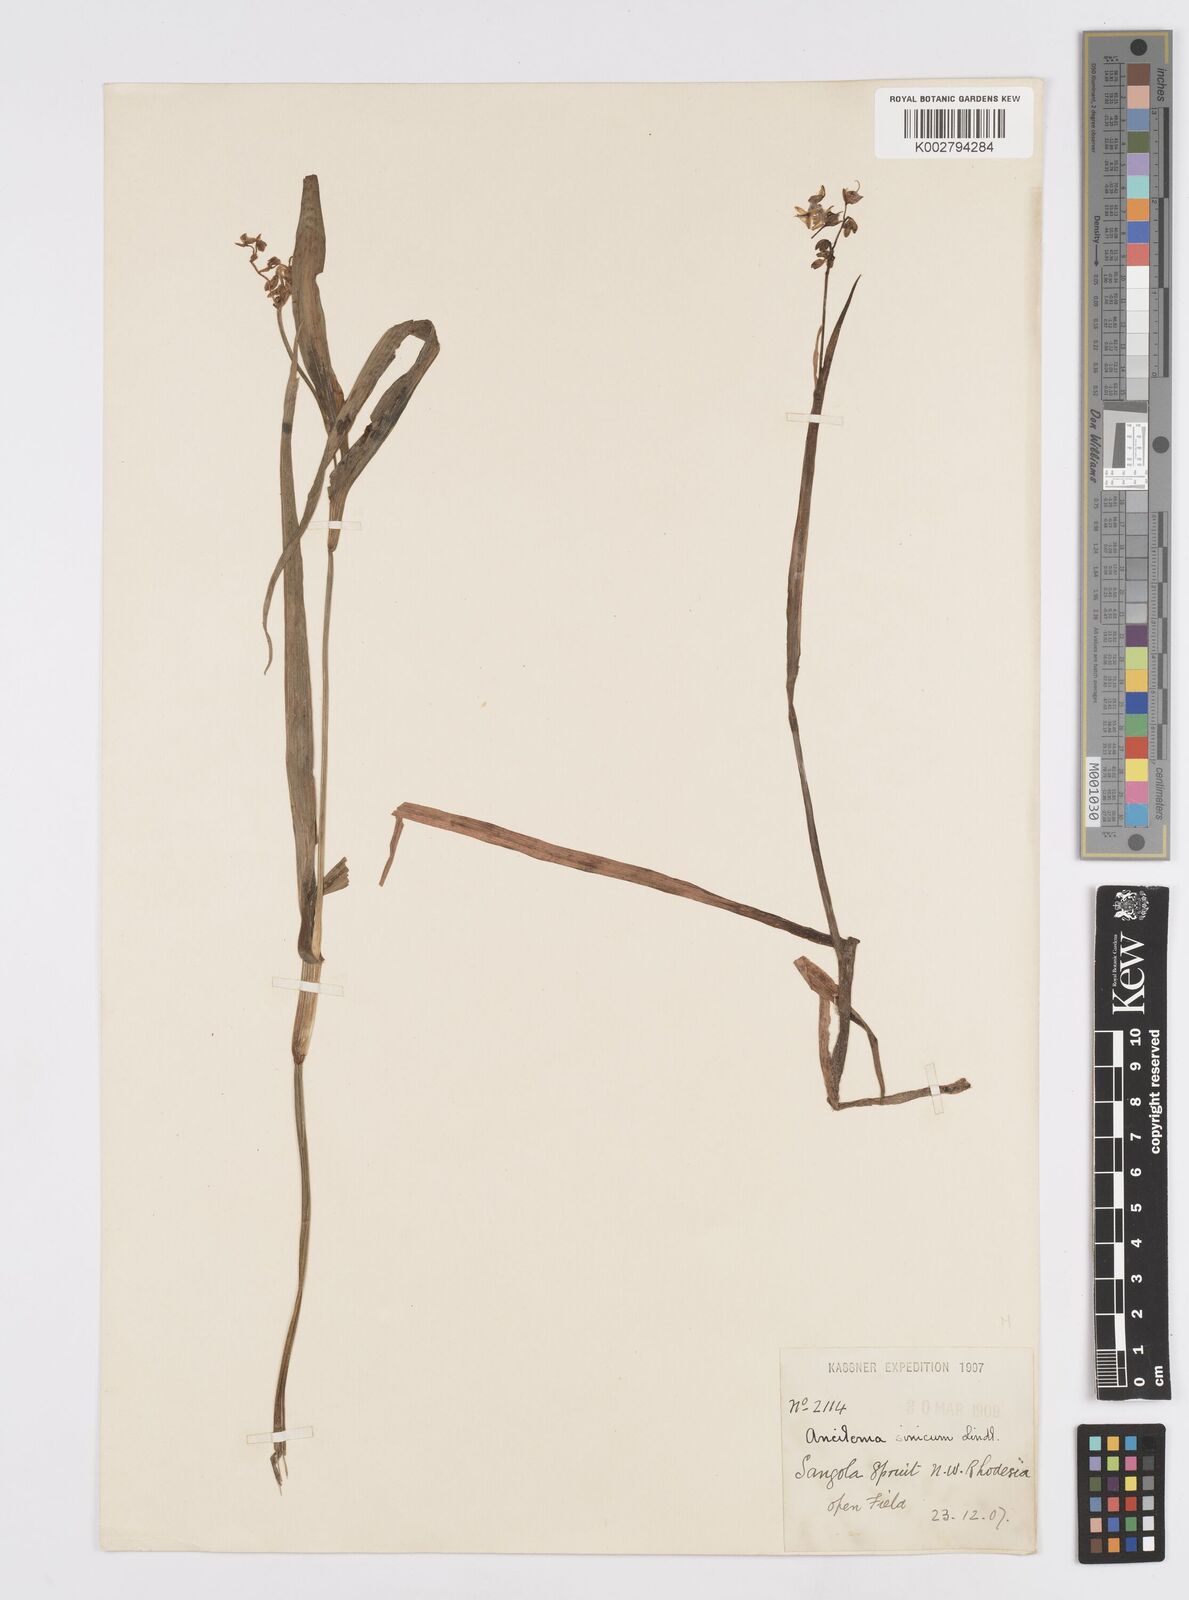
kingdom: Plantae
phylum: Tracheophyta
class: Liliopsida
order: Commelinales
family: Commelinaceae
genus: Murdannia
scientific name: Murdannia simplex
